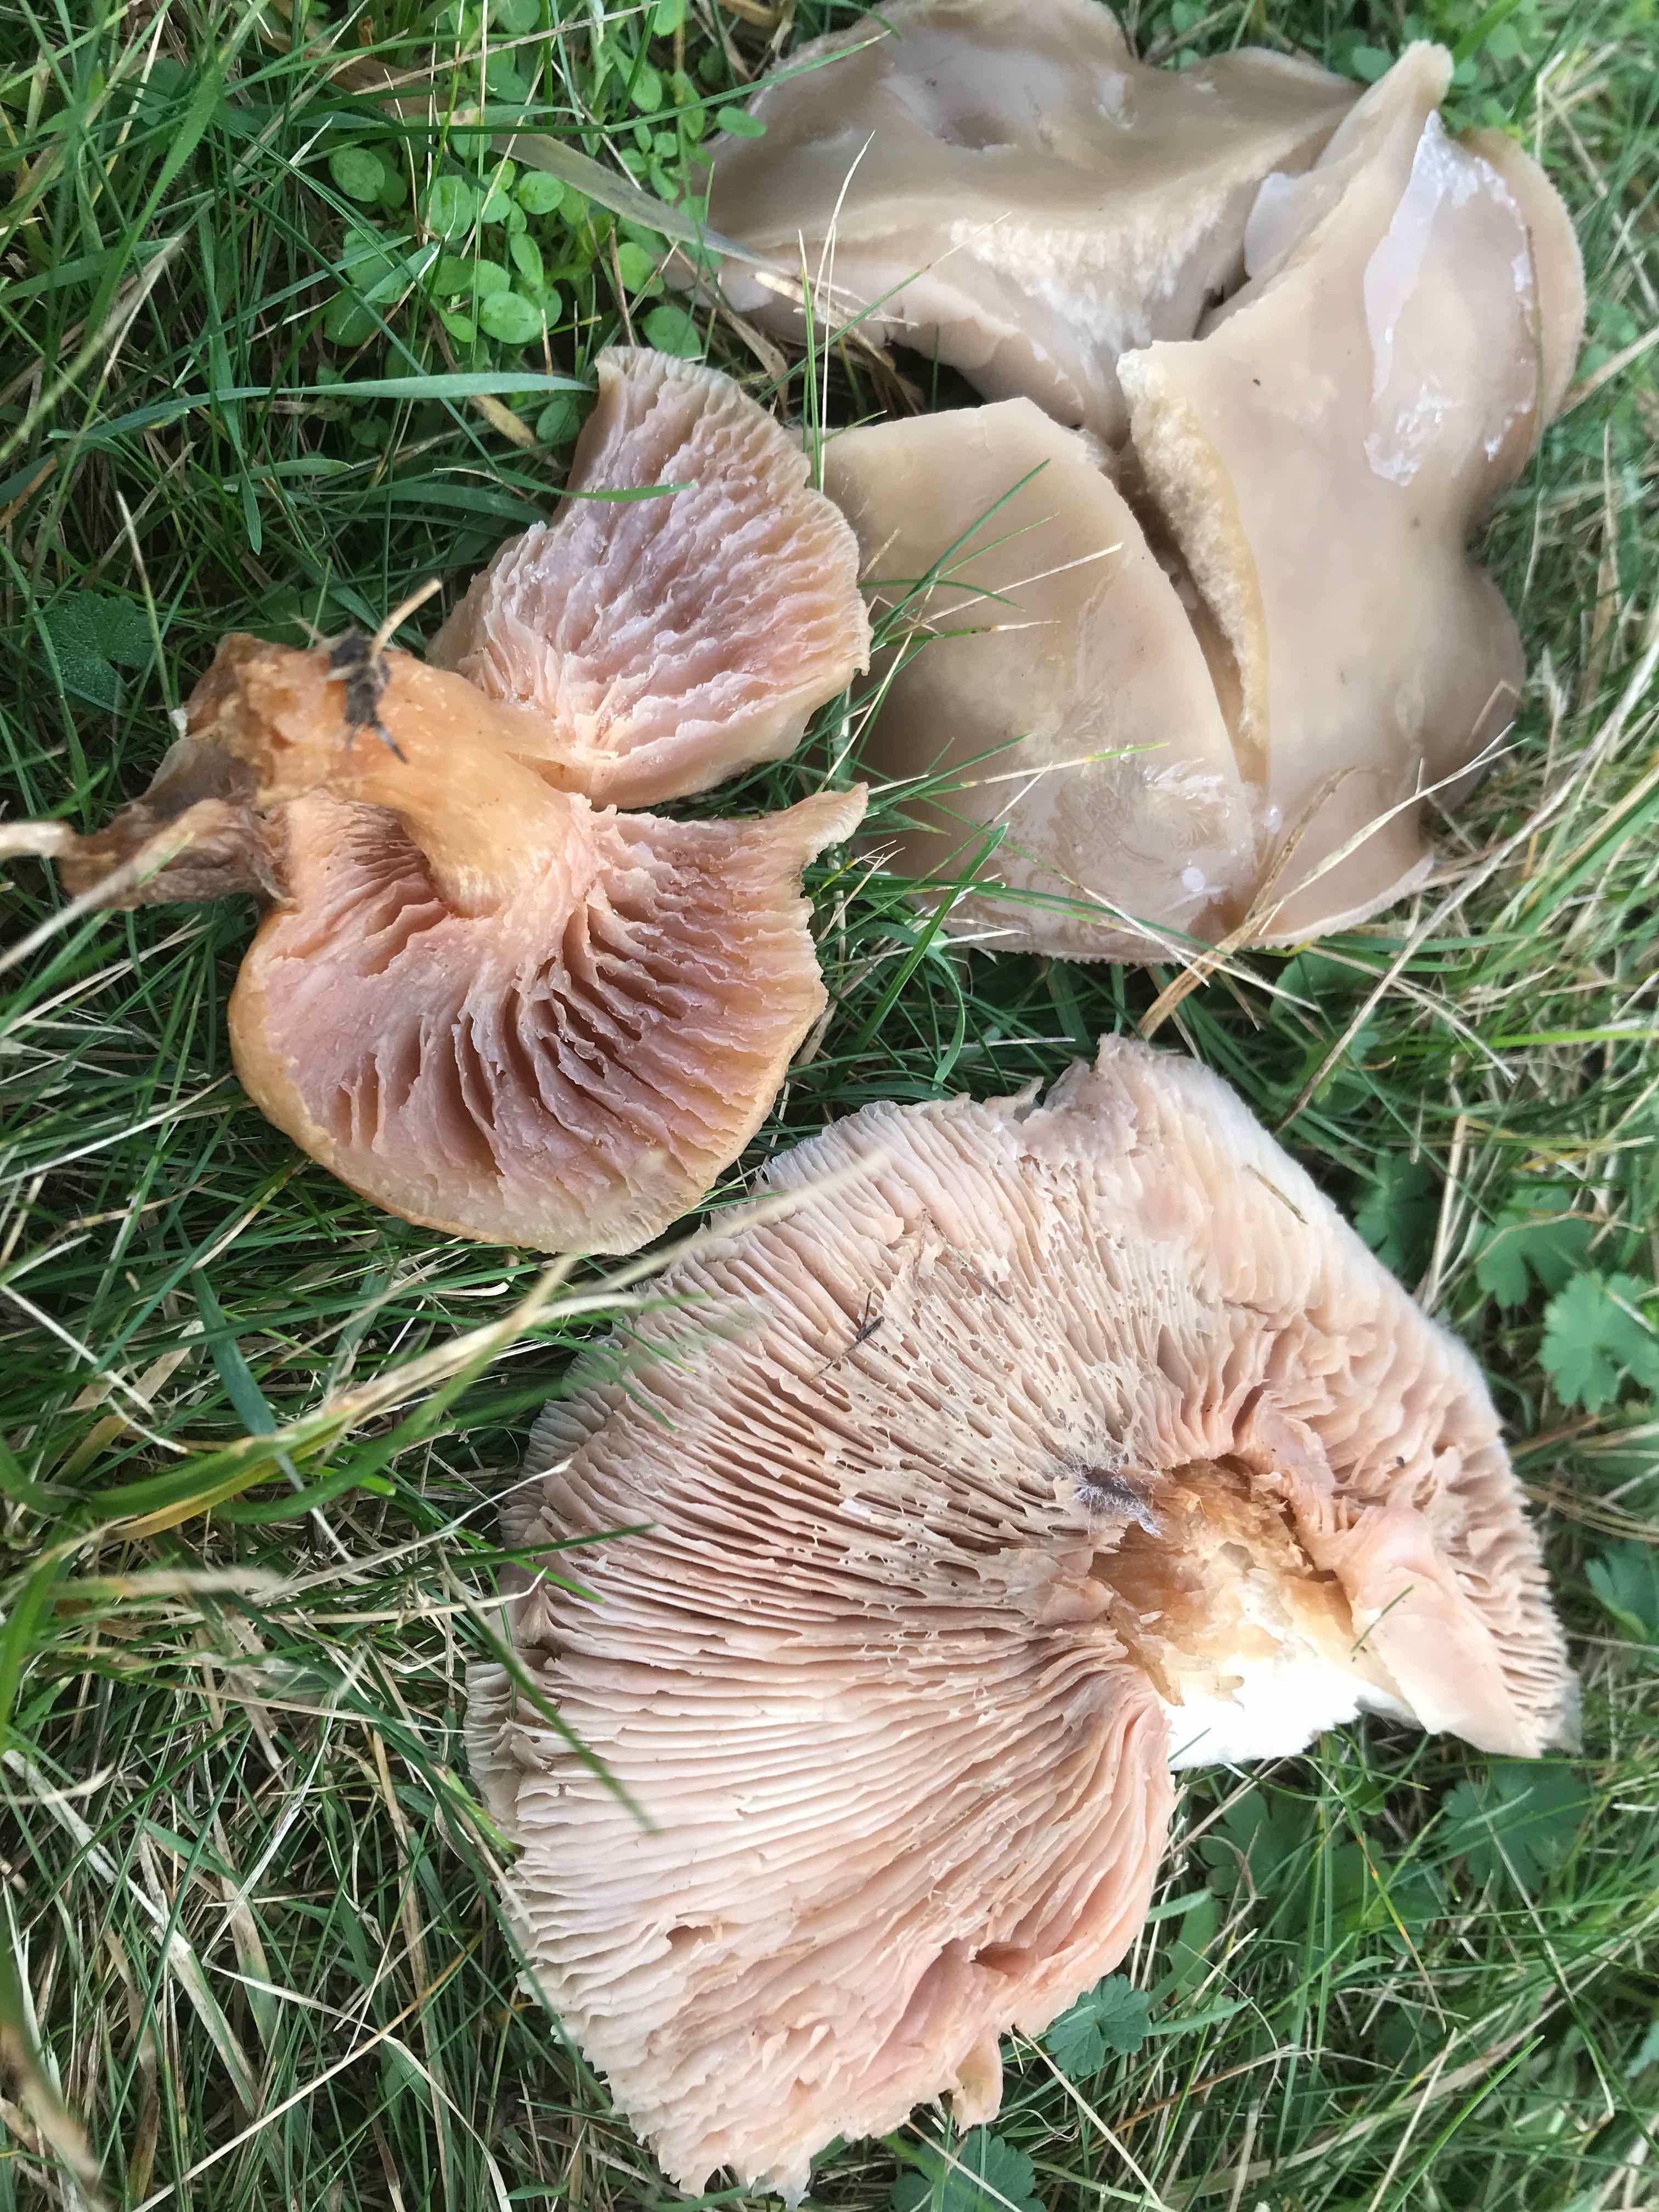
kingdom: Fungi
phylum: Basidiomycota
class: Agaricomycetes
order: Agaricales
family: Tricholomataceae
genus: Lepista
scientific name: Lepista personata
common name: bleg hekseringshat
